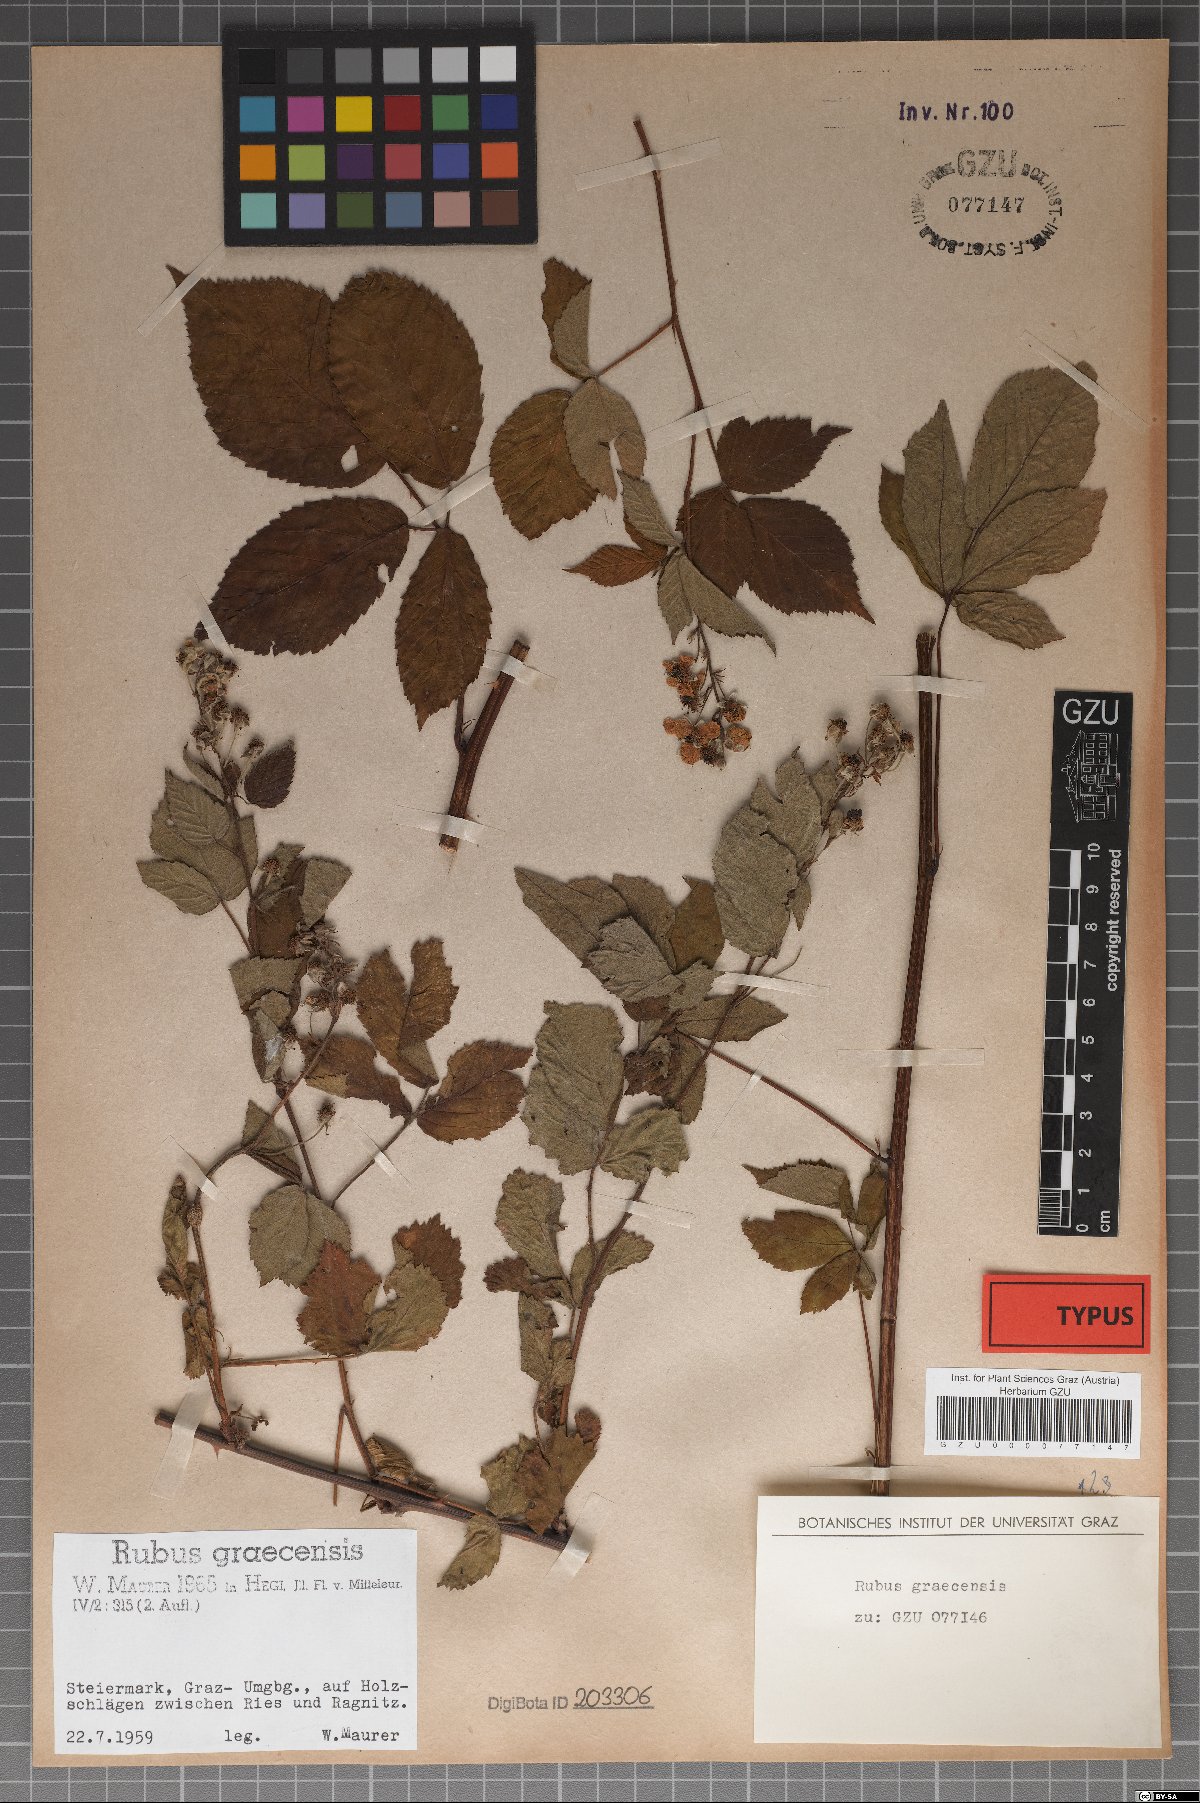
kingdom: Plantae
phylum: Tracheophyta
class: Magnoliopsida
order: Rosales
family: Rosaceae
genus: Rubus
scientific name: Rubus graecensis
